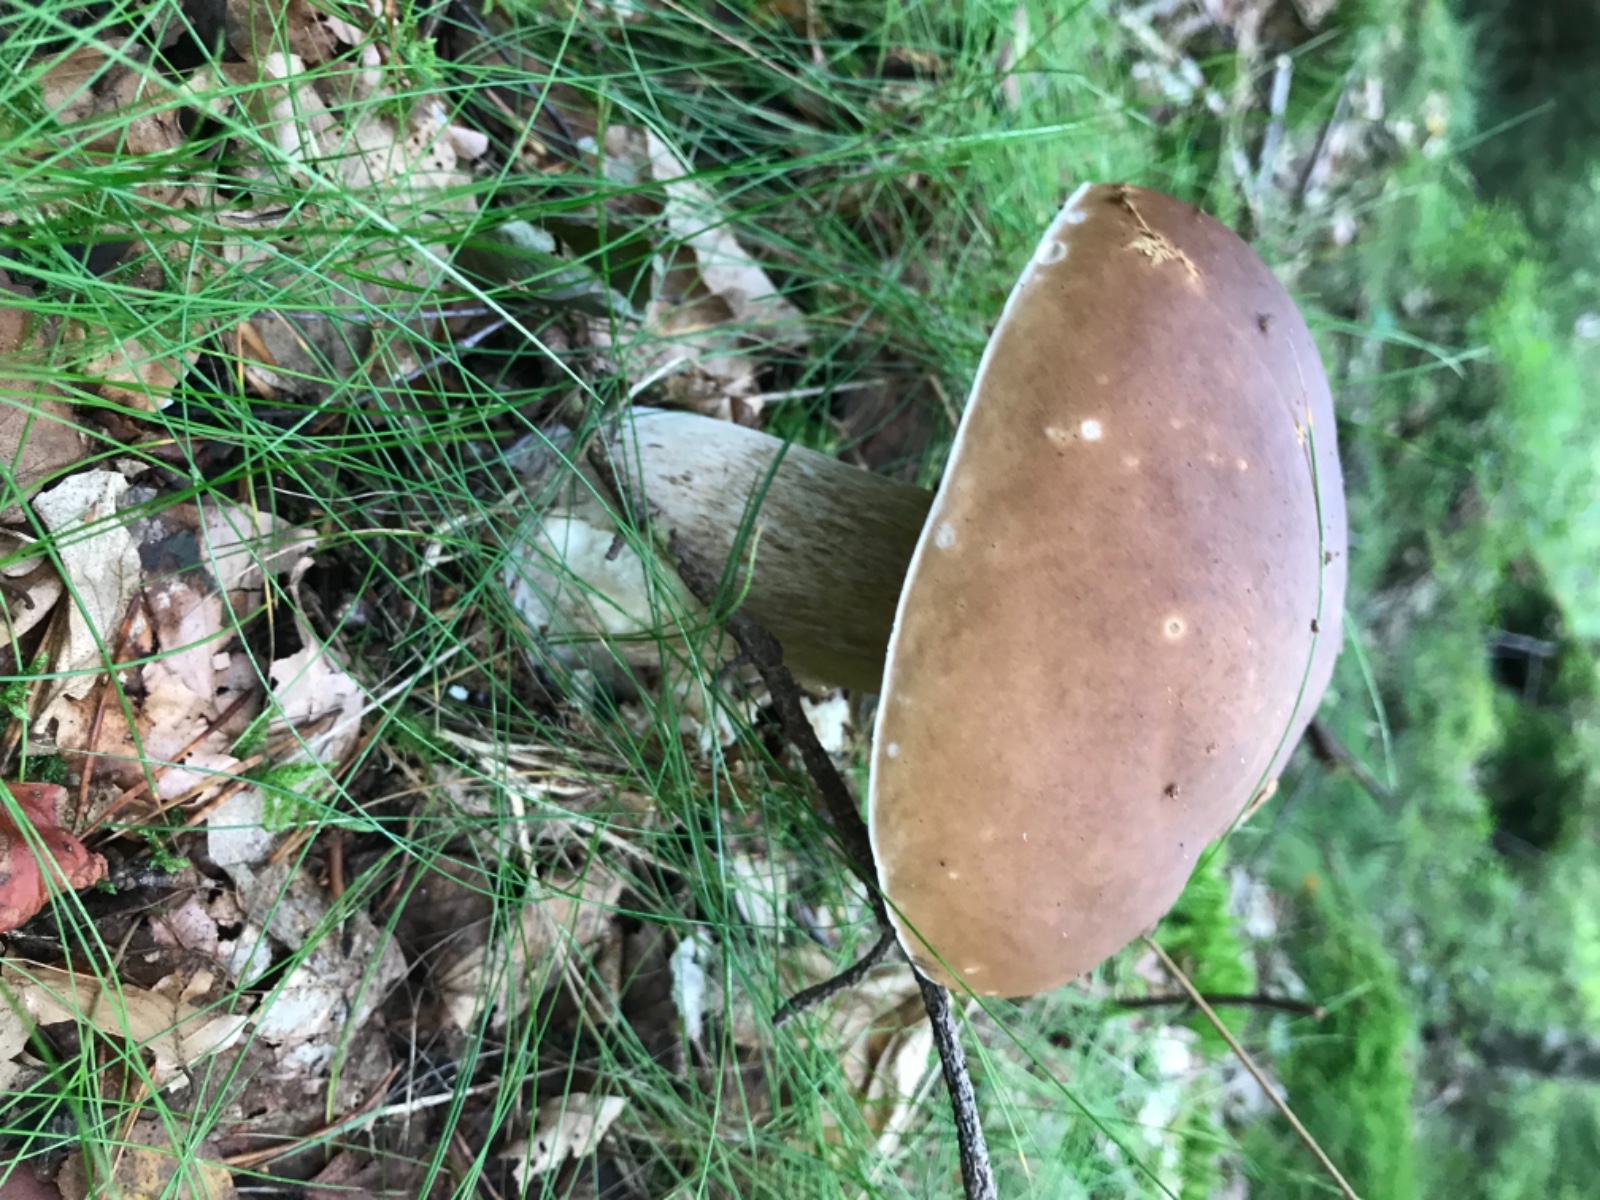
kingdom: Fungi
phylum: Basidiomycota
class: Agaricomycetes
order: Boletales
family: Boletaceae
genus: Boletus
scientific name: Boletus edulis
